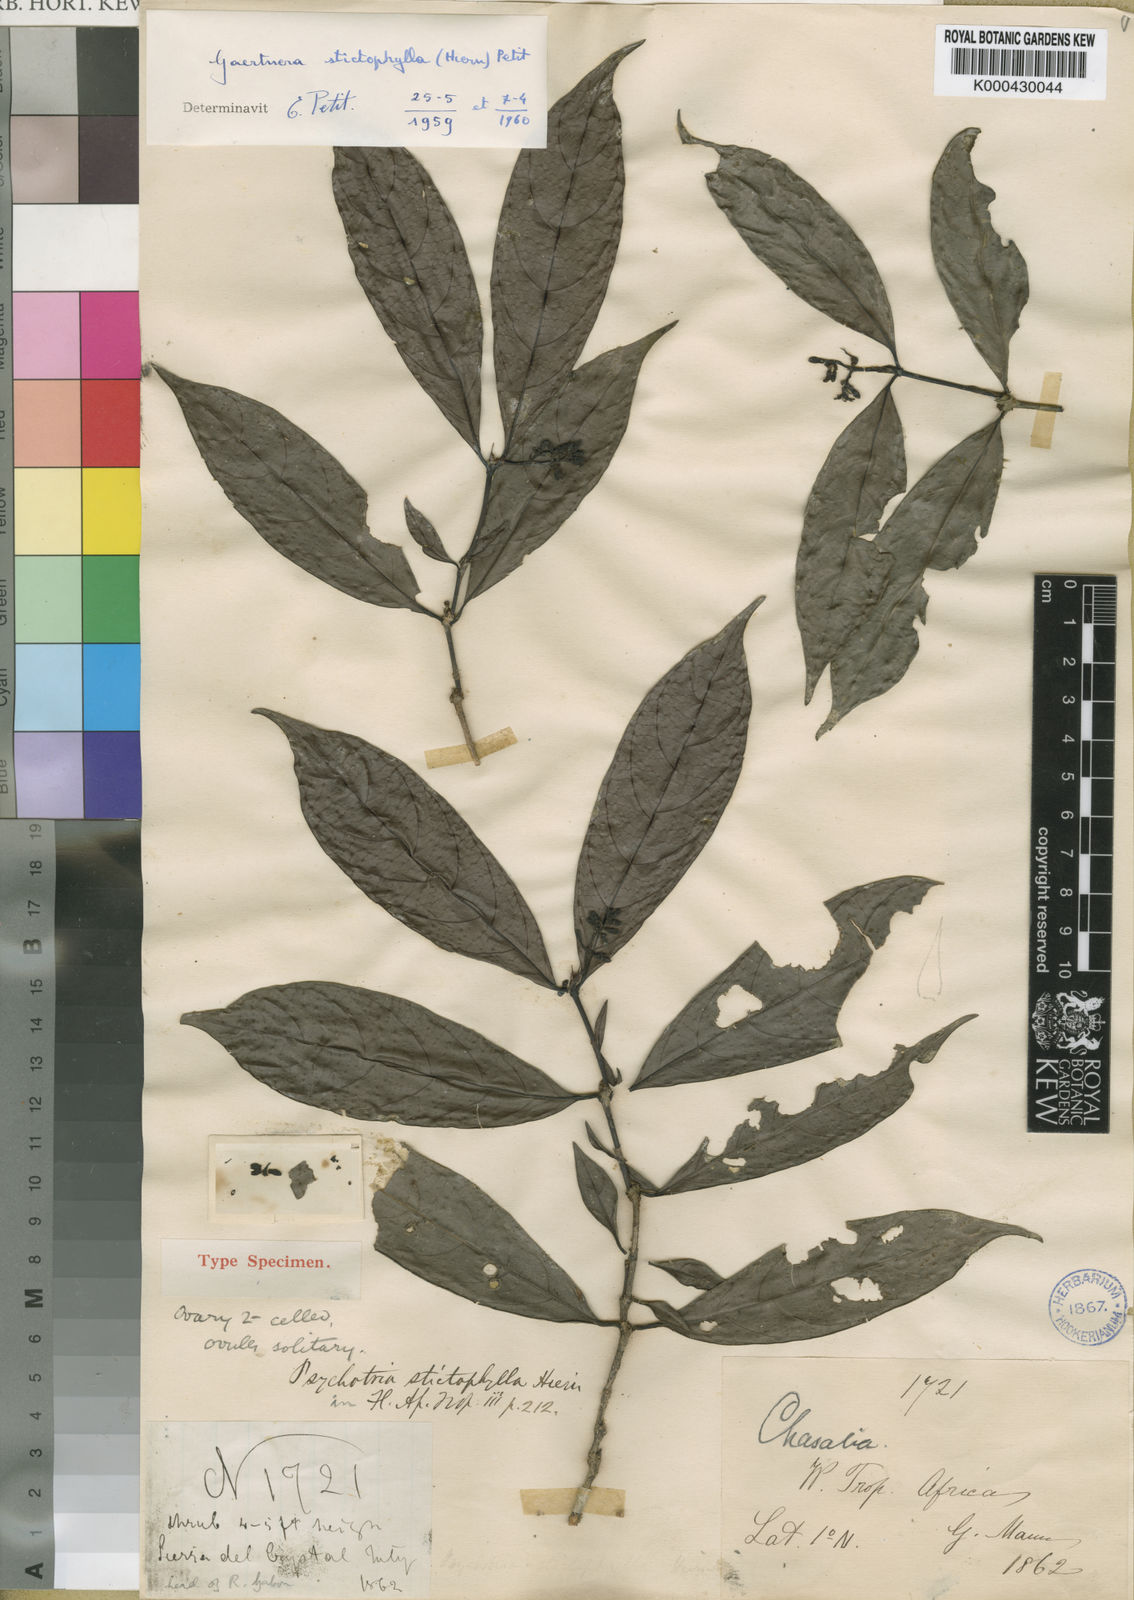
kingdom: Plantae
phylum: Tracheophyta
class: Magnoliopsida
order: Gentianales
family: Rubiaceae
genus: Gaertnera
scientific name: Gaertnera stictophylla
